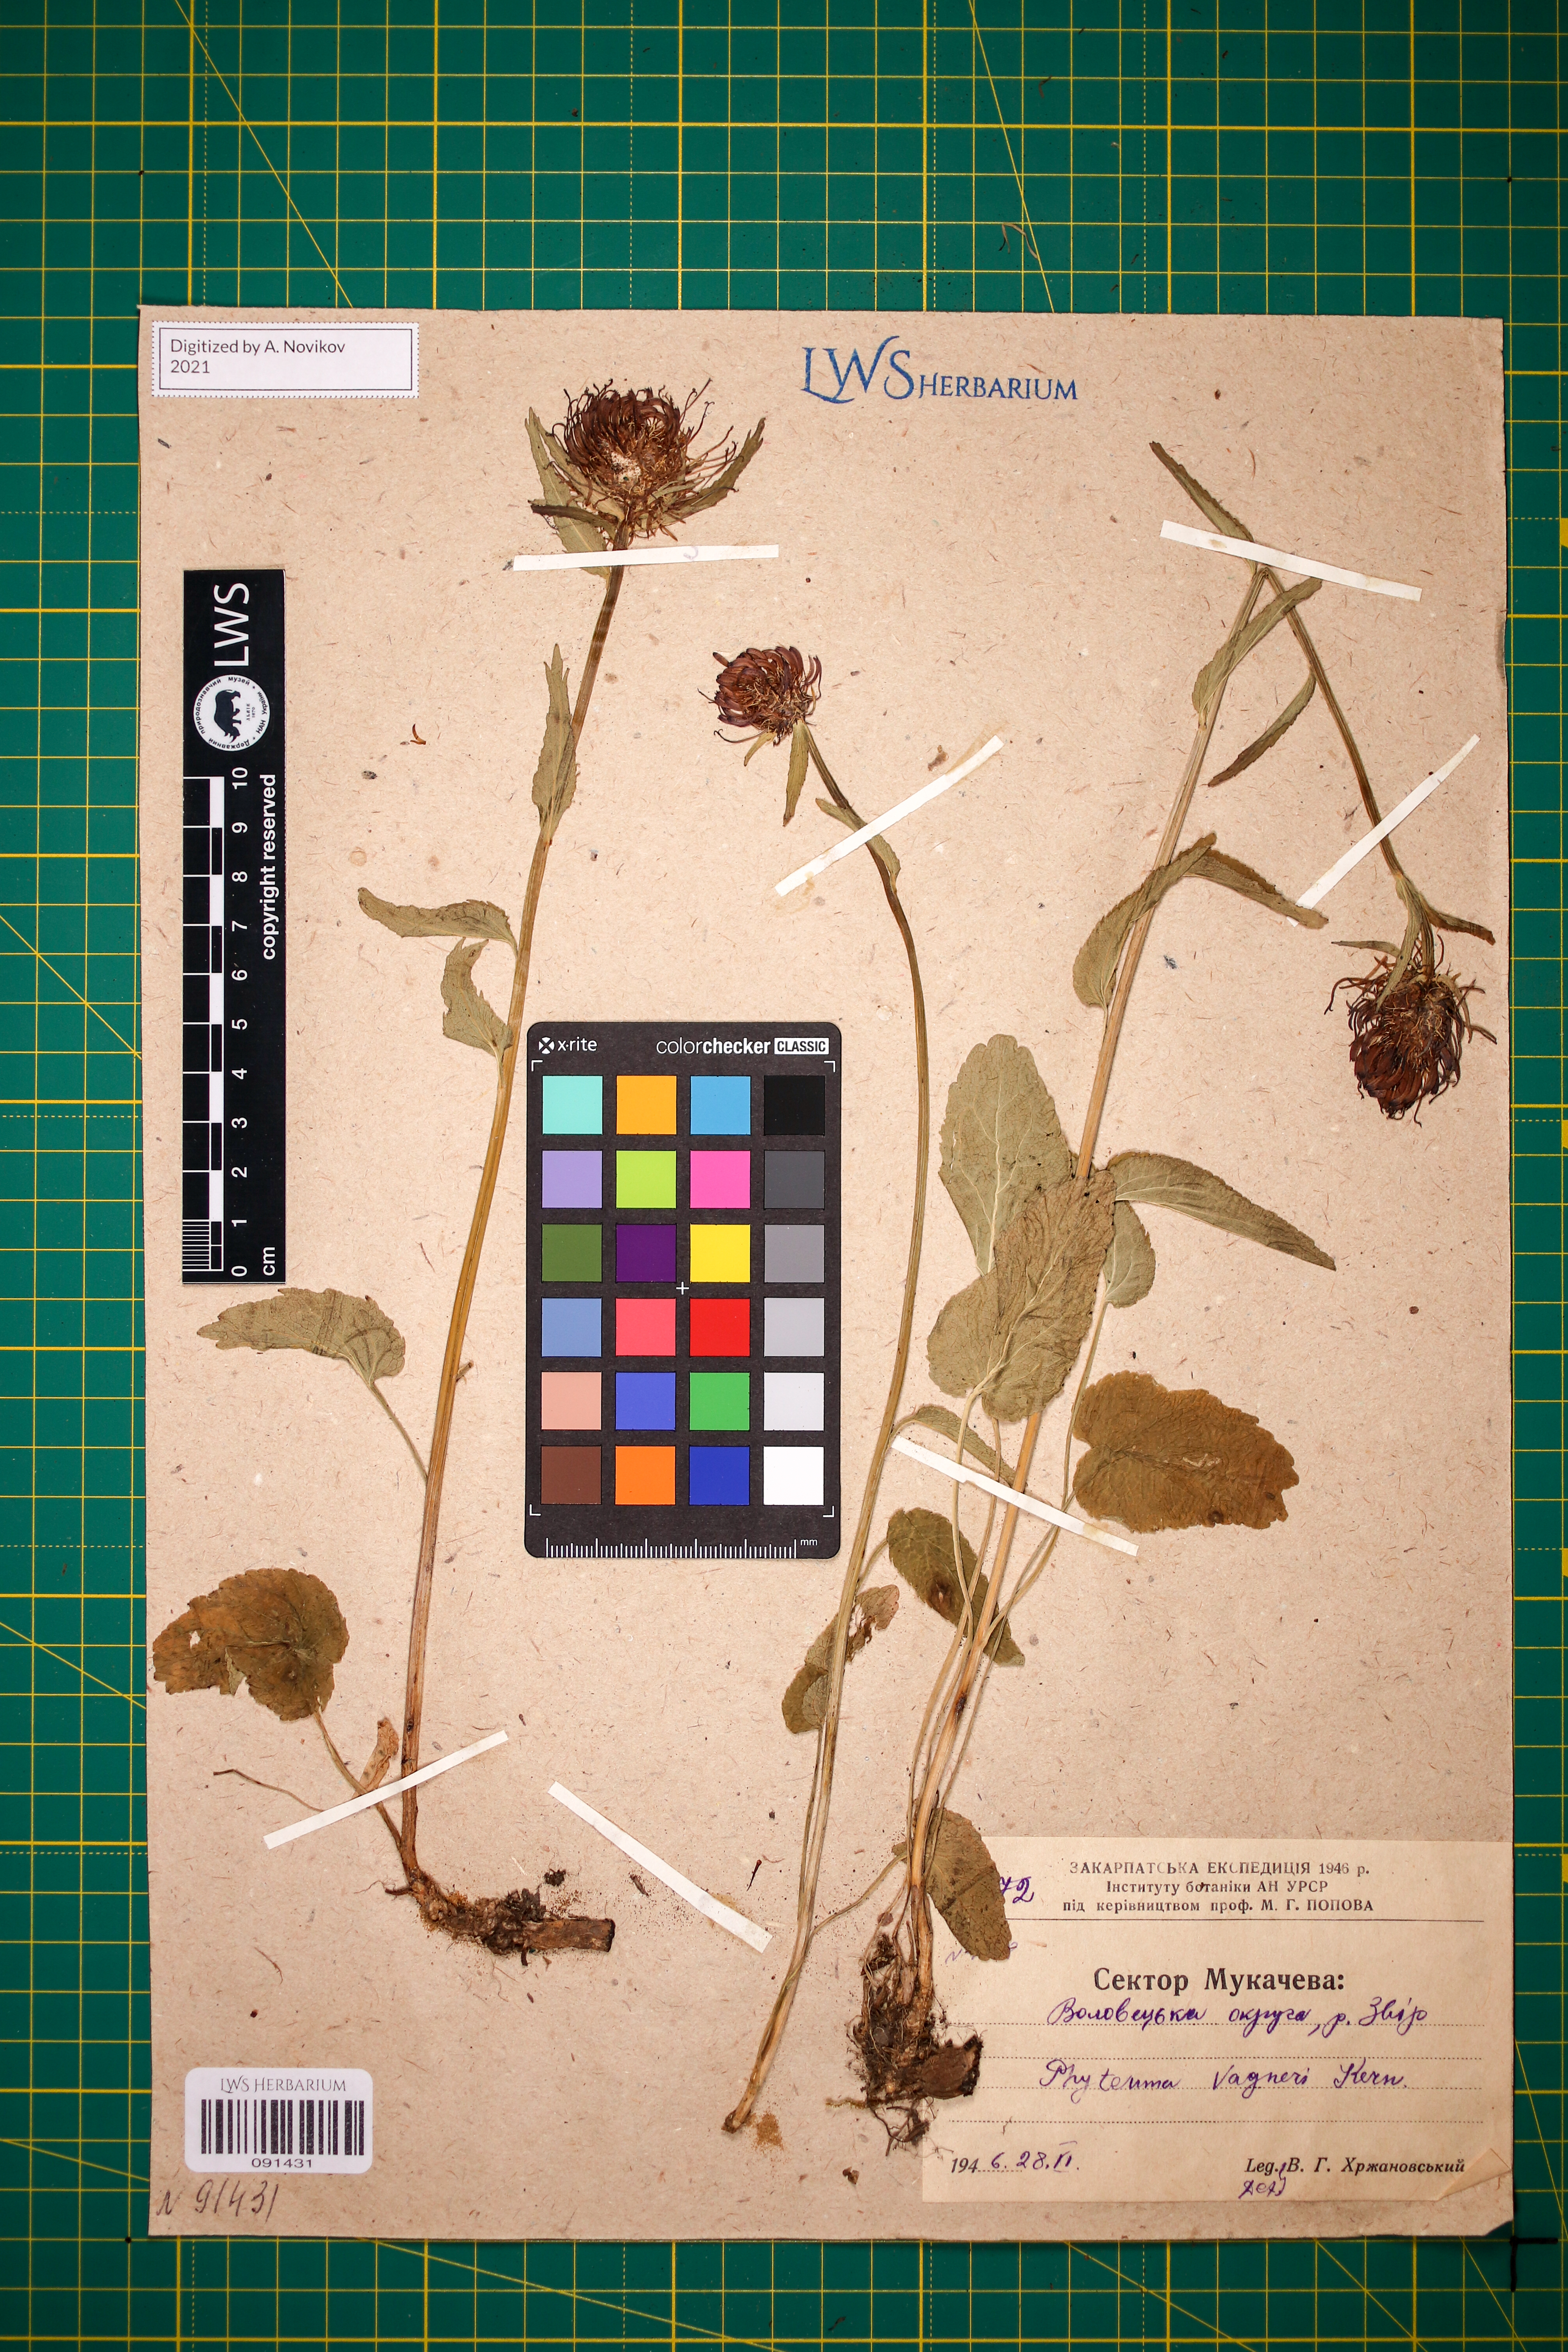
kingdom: Plantae
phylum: Tracheophyta
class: Magnoliopsida
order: Asterales
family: Campanulaceae
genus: Phyteuma
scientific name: Phyteuma vagneri
